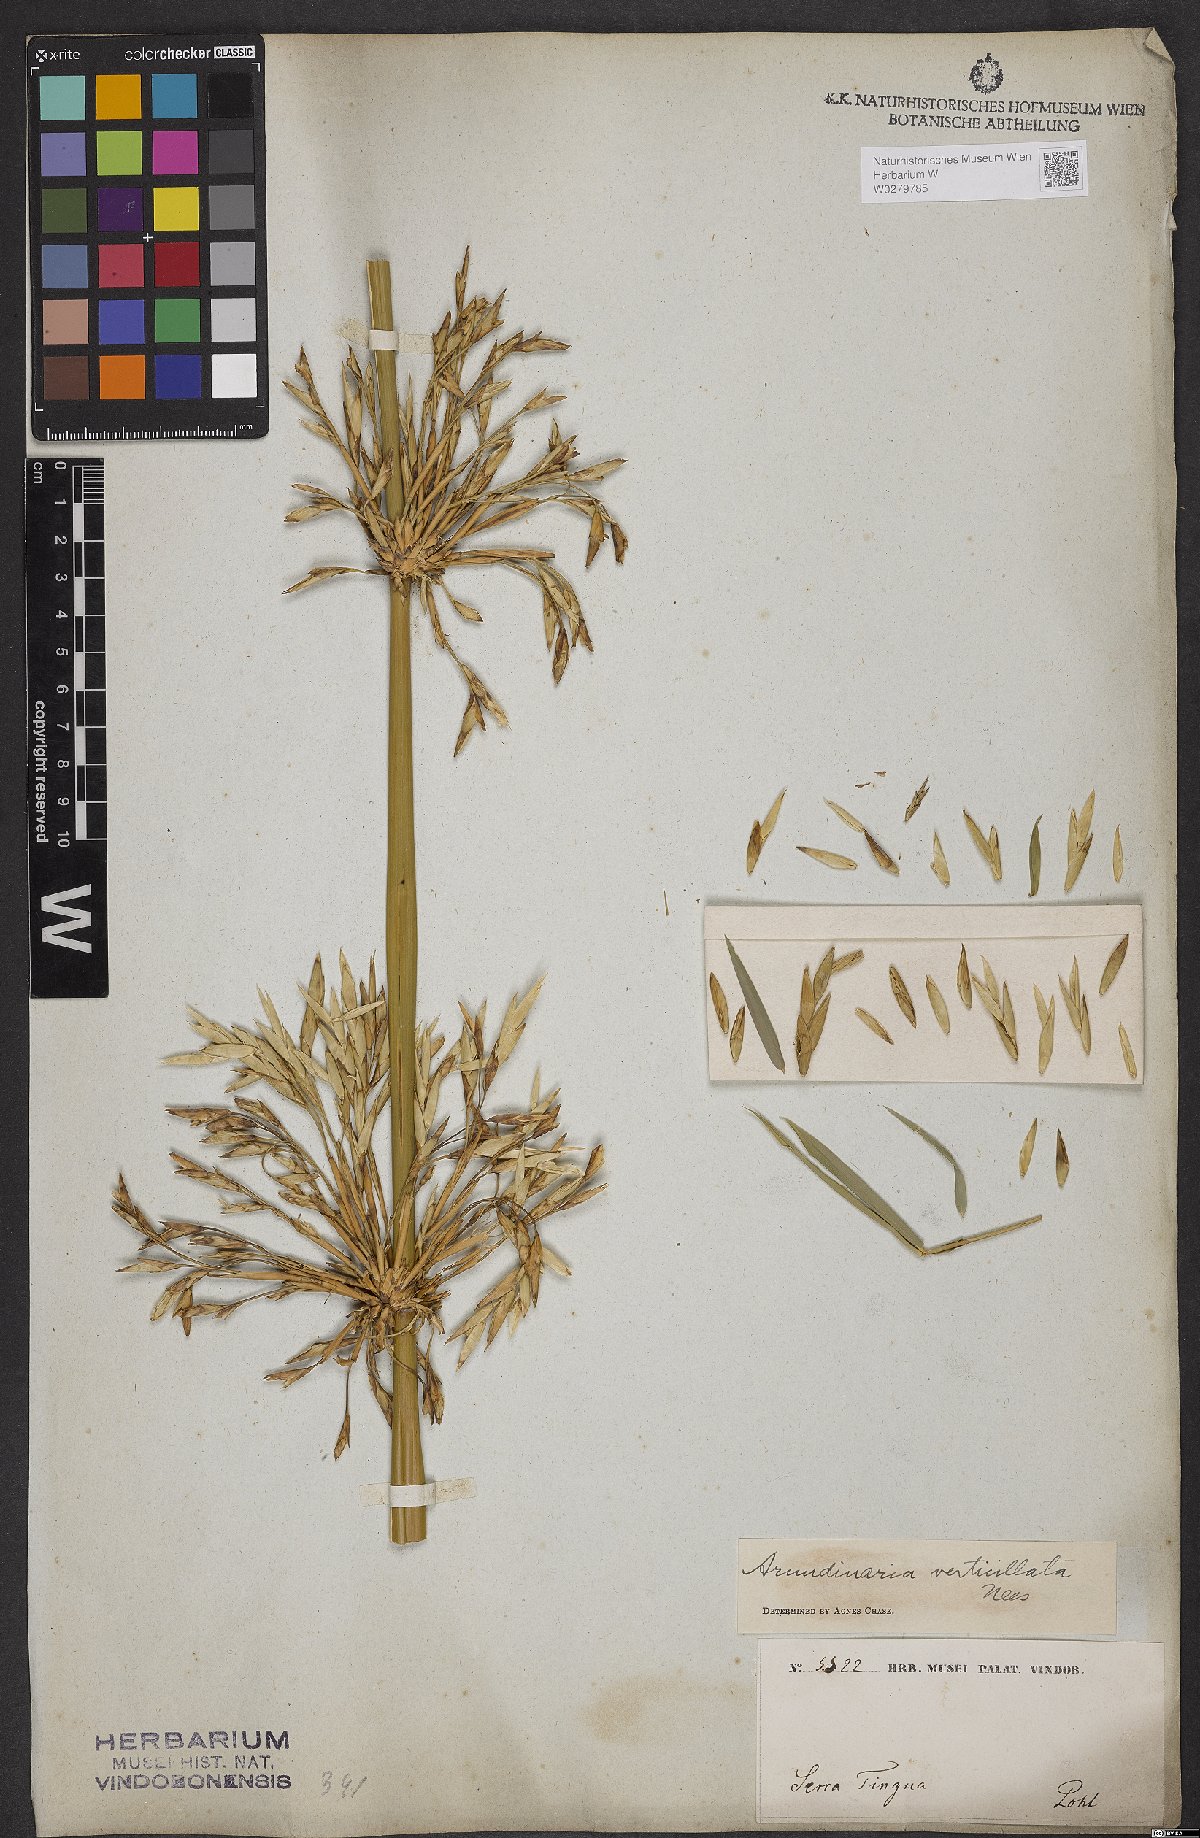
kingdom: Plantae
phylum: Tracheophyta
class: Liliopsida
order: Poales
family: Poaceae
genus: Actinocladum
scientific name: Actinocladum verticillatum
